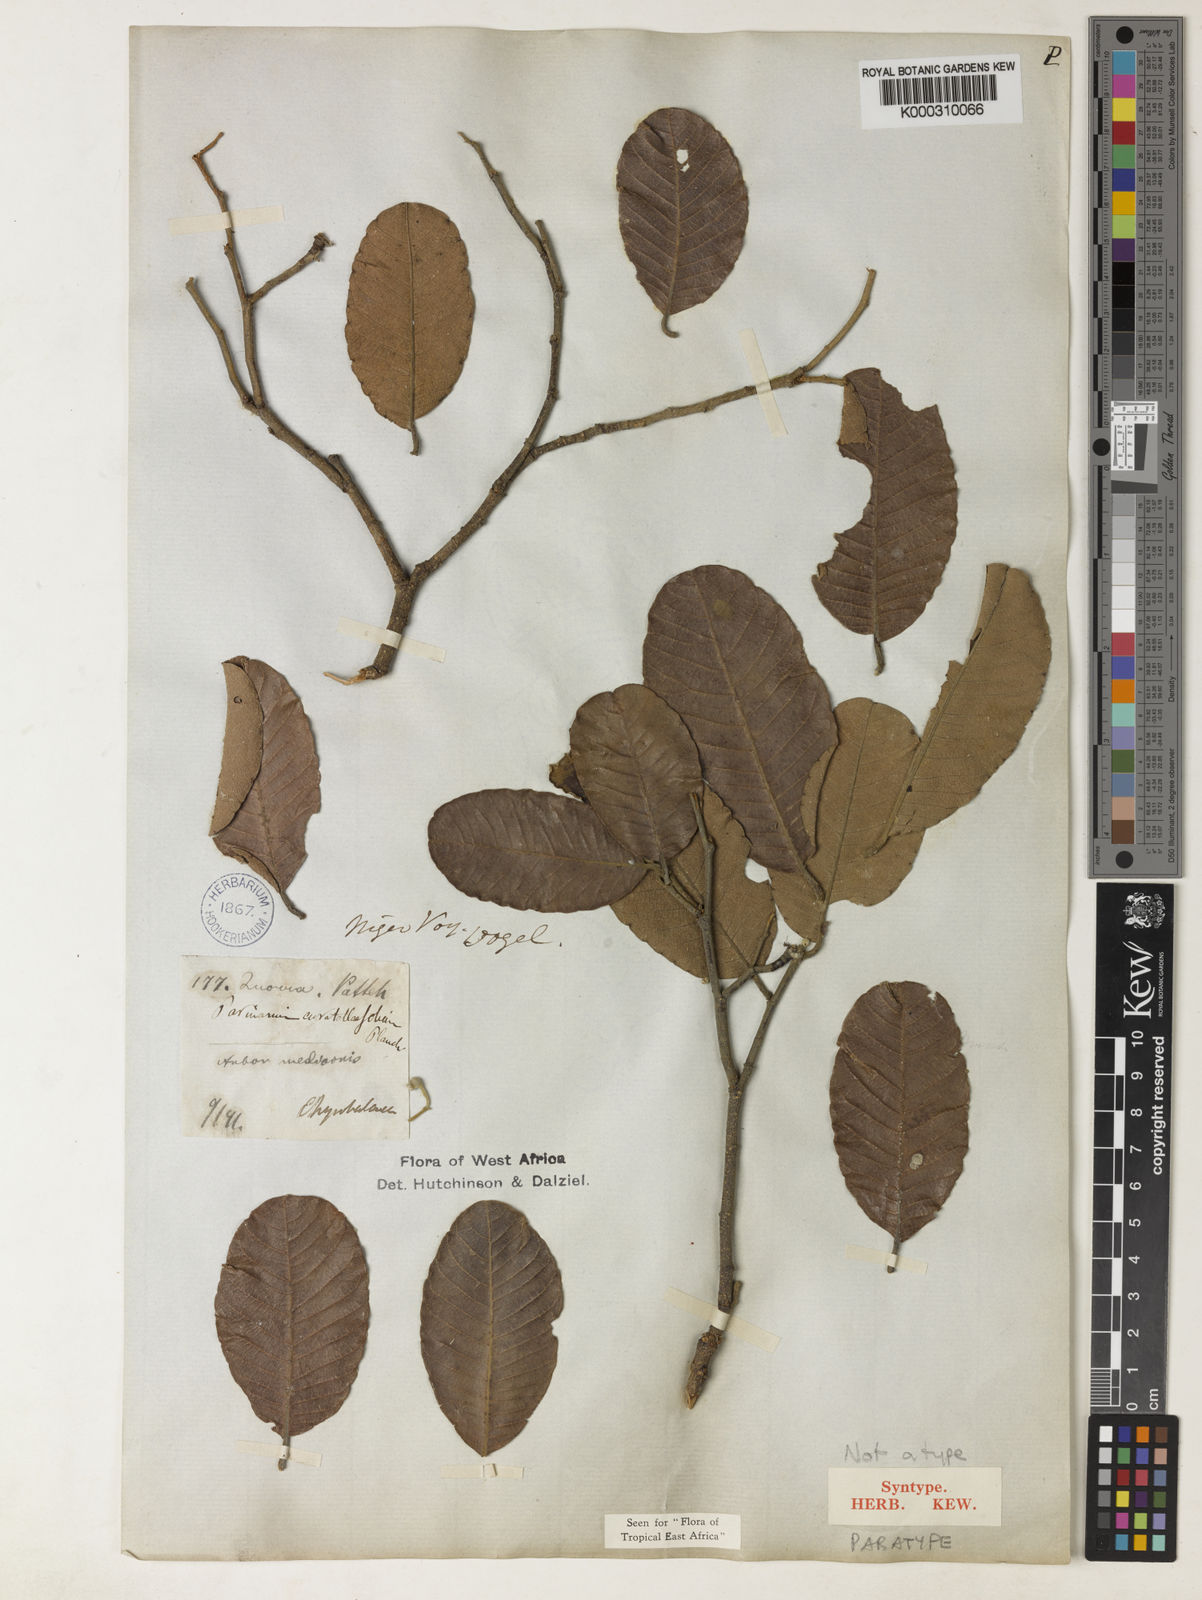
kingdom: Plantae
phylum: Tracheophyta
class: Magnoliopsida
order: Malpighiales
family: Chrysobalanaceae
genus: Parinari
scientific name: Parinari curatellifolia
